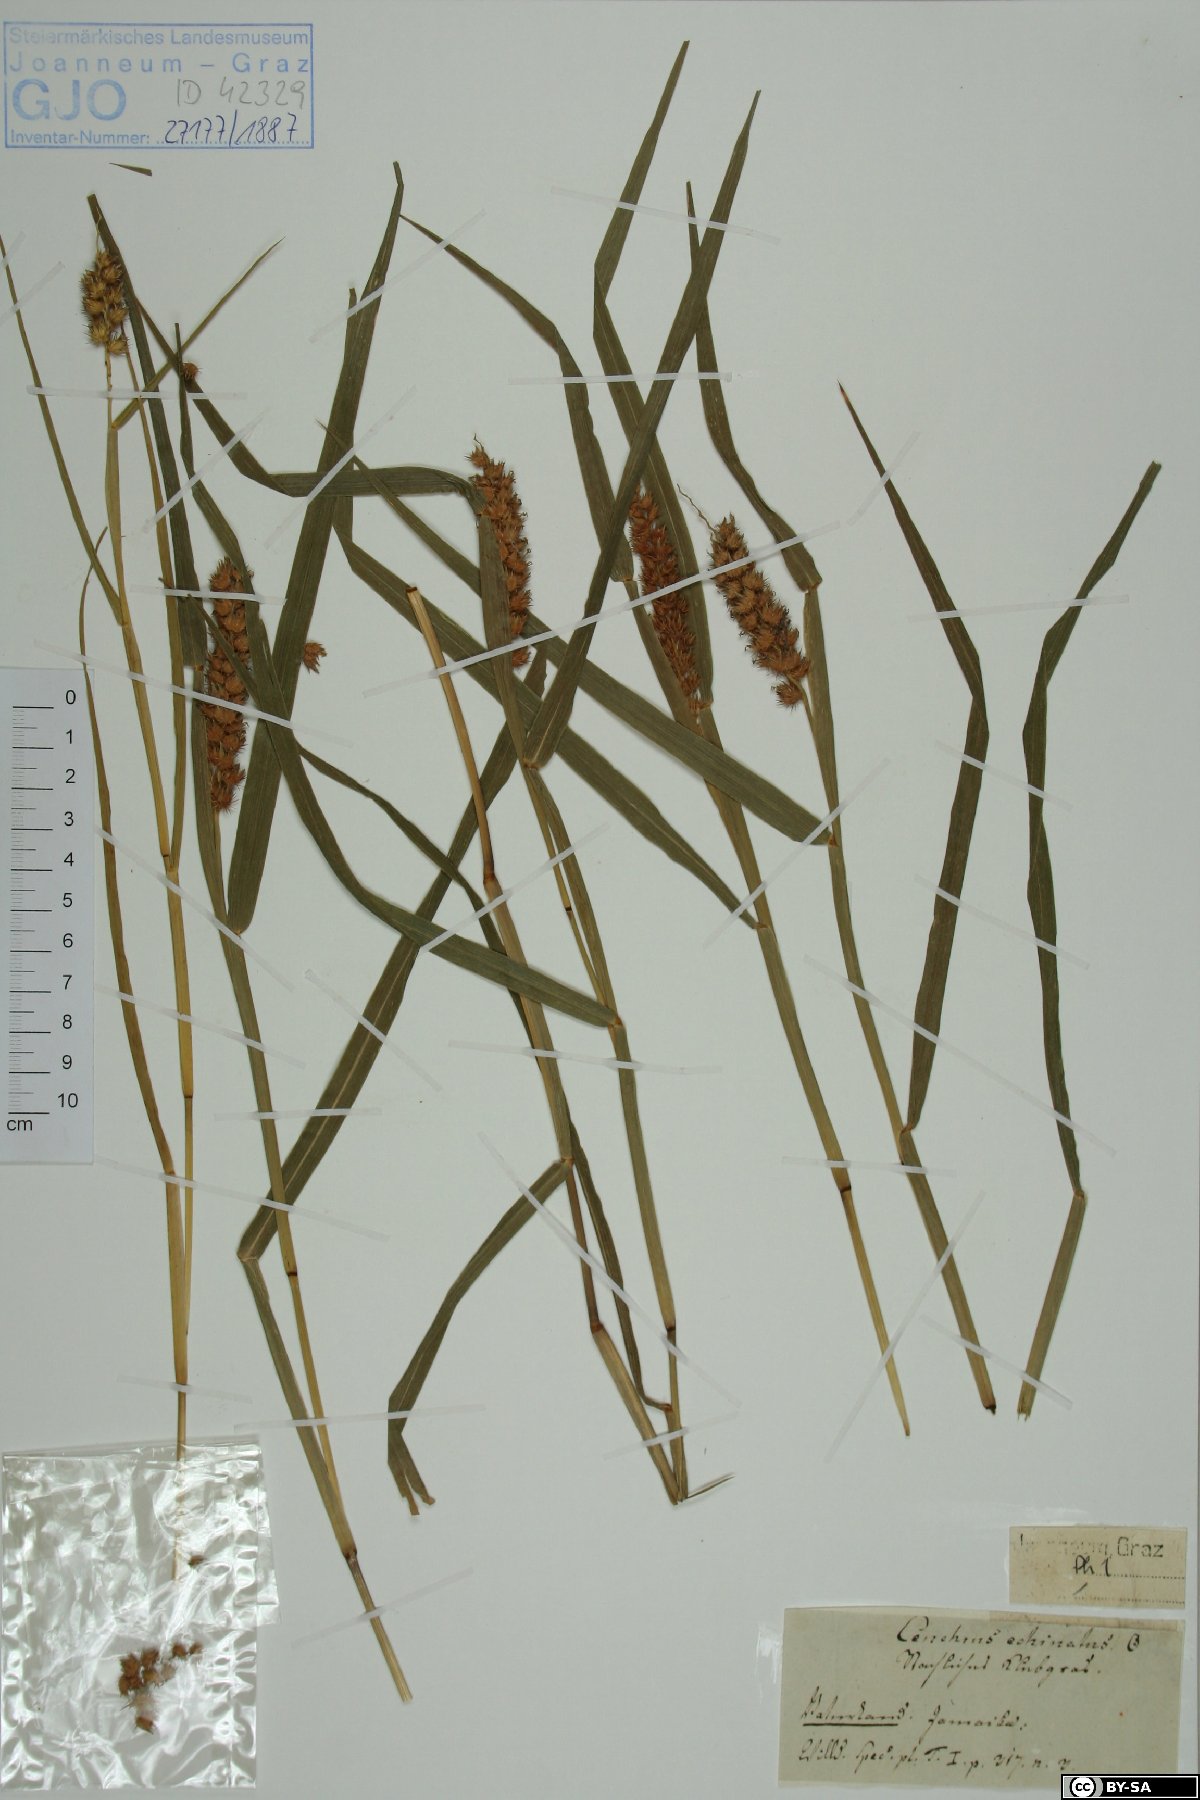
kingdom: Plantae
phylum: Tracheophyta
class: Liliopsida
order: Poales
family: Poaceae
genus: Cenchrus
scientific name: Cenchrus echinatus
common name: Southern sandbur
